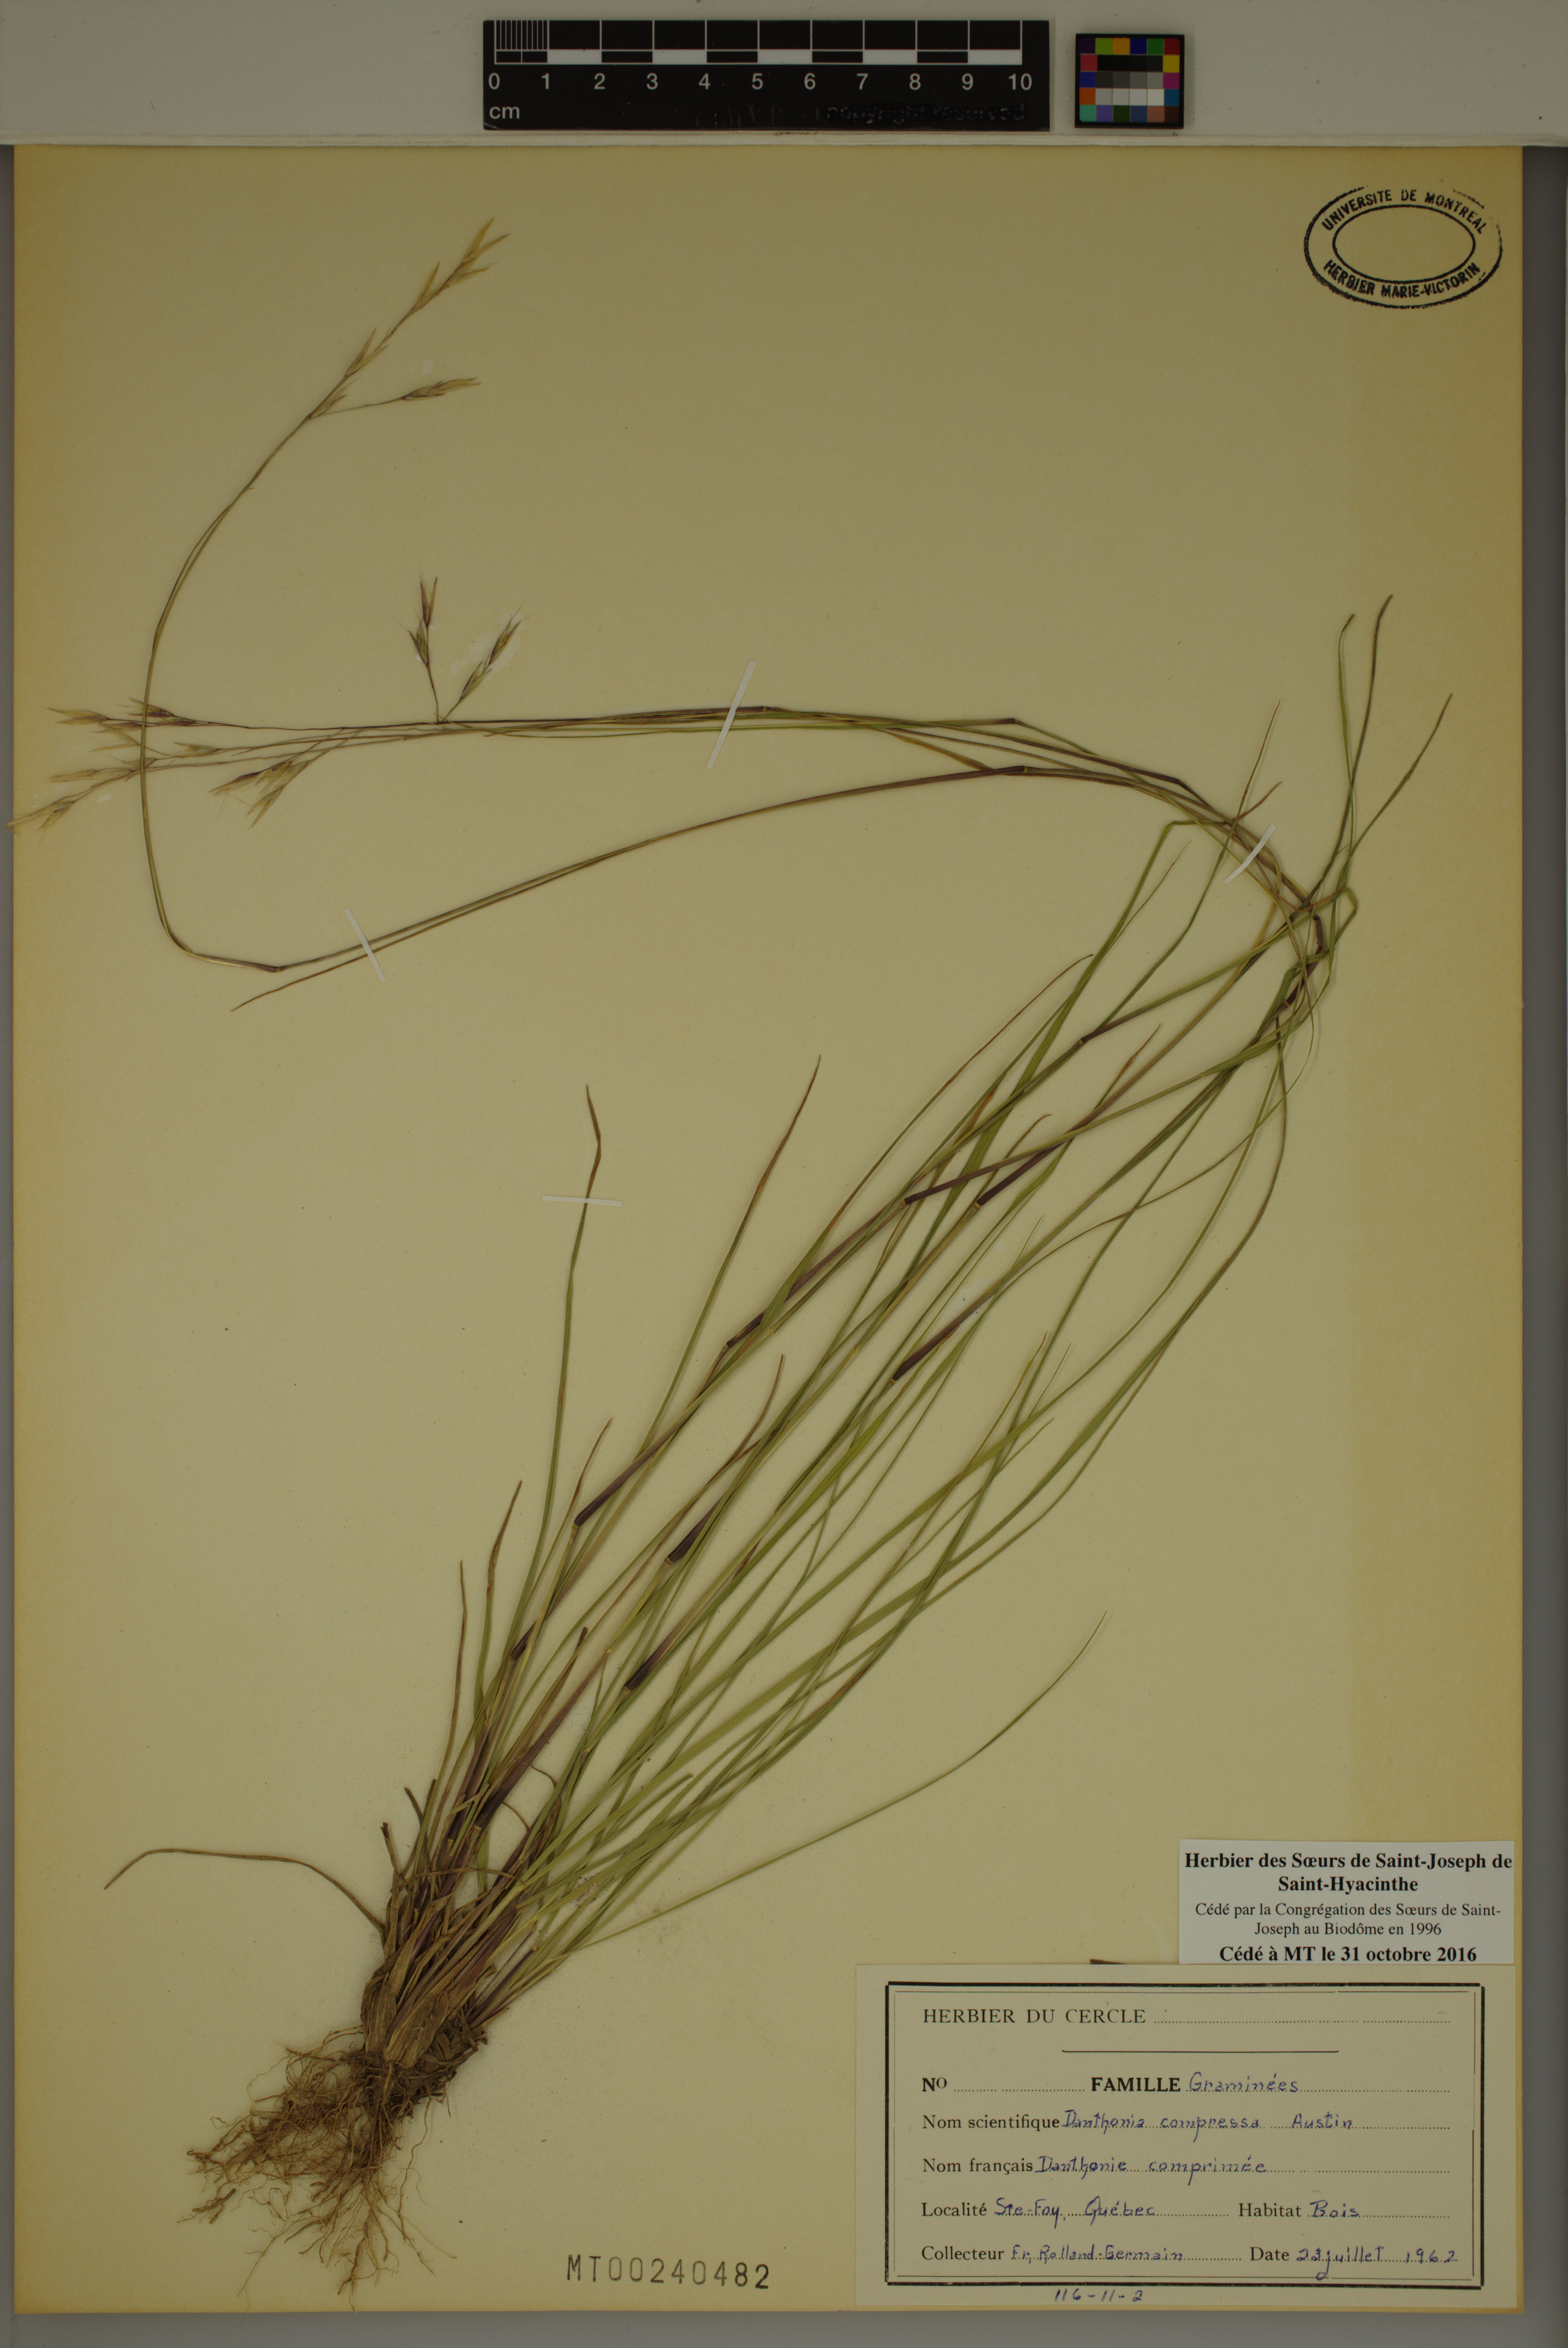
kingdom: Plantae
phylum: Tracheophyta
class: Liliopsida
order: Poales
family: Poaceae
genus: Danthonia
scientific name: Danthonia compressa
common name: Flat-stem oat grass
